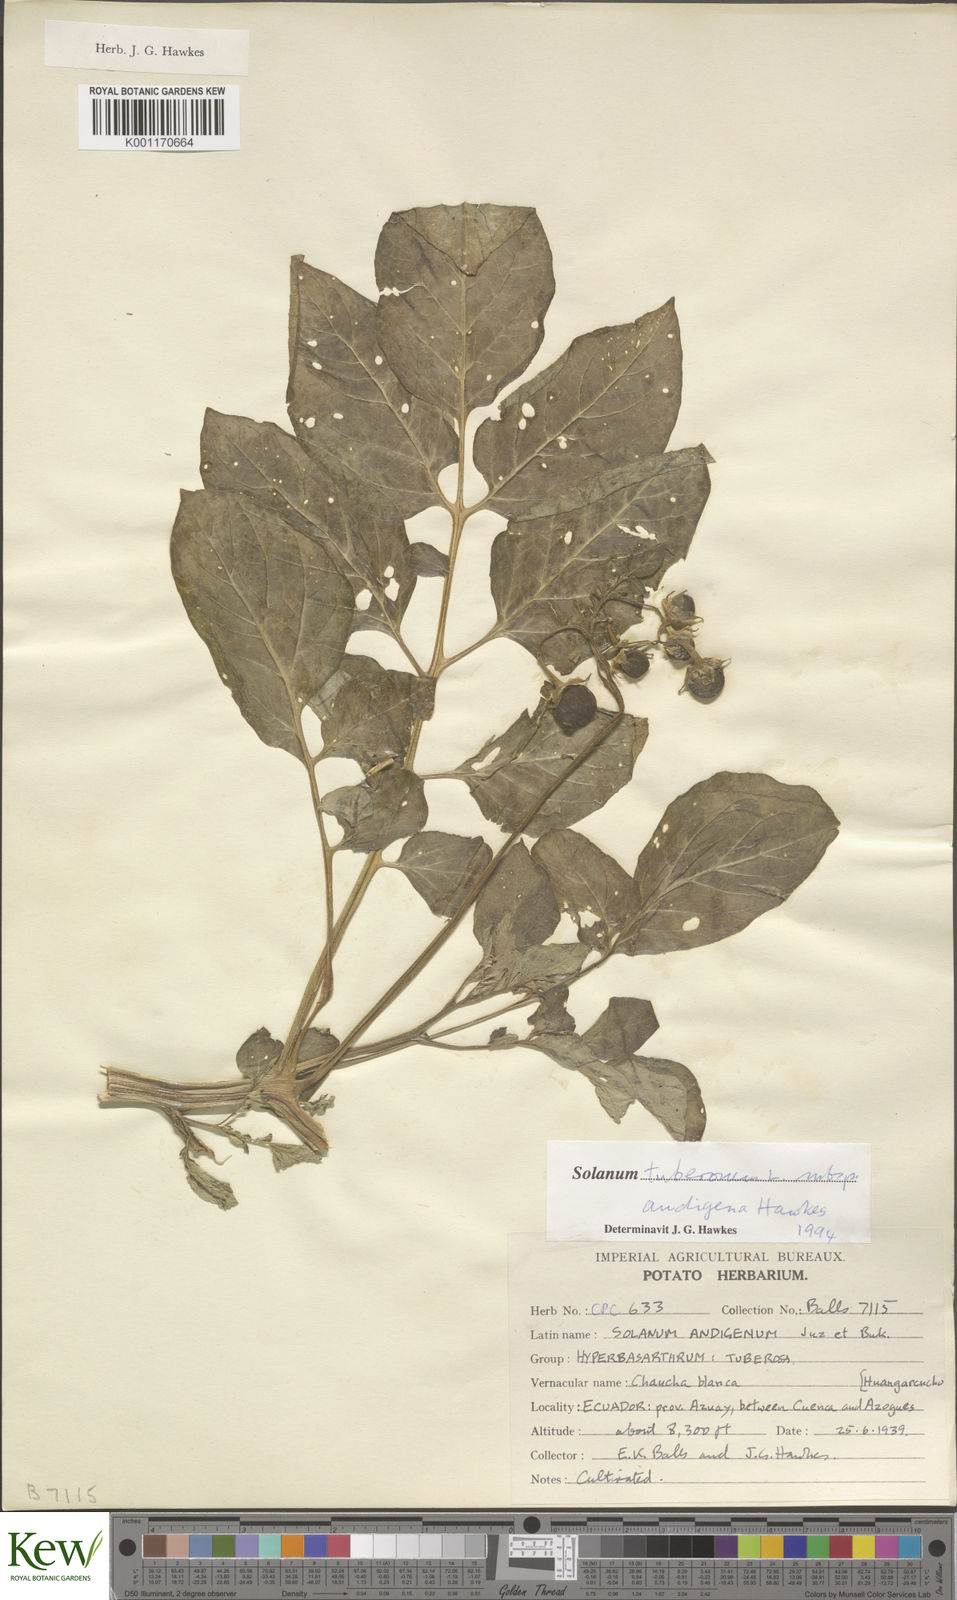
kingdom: Plantae
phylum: Tracheophyta
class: Magnoliopsida
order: Solanales
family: Solanaceae
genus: Solanum
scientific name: Solanum tuberosum
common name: Potato
